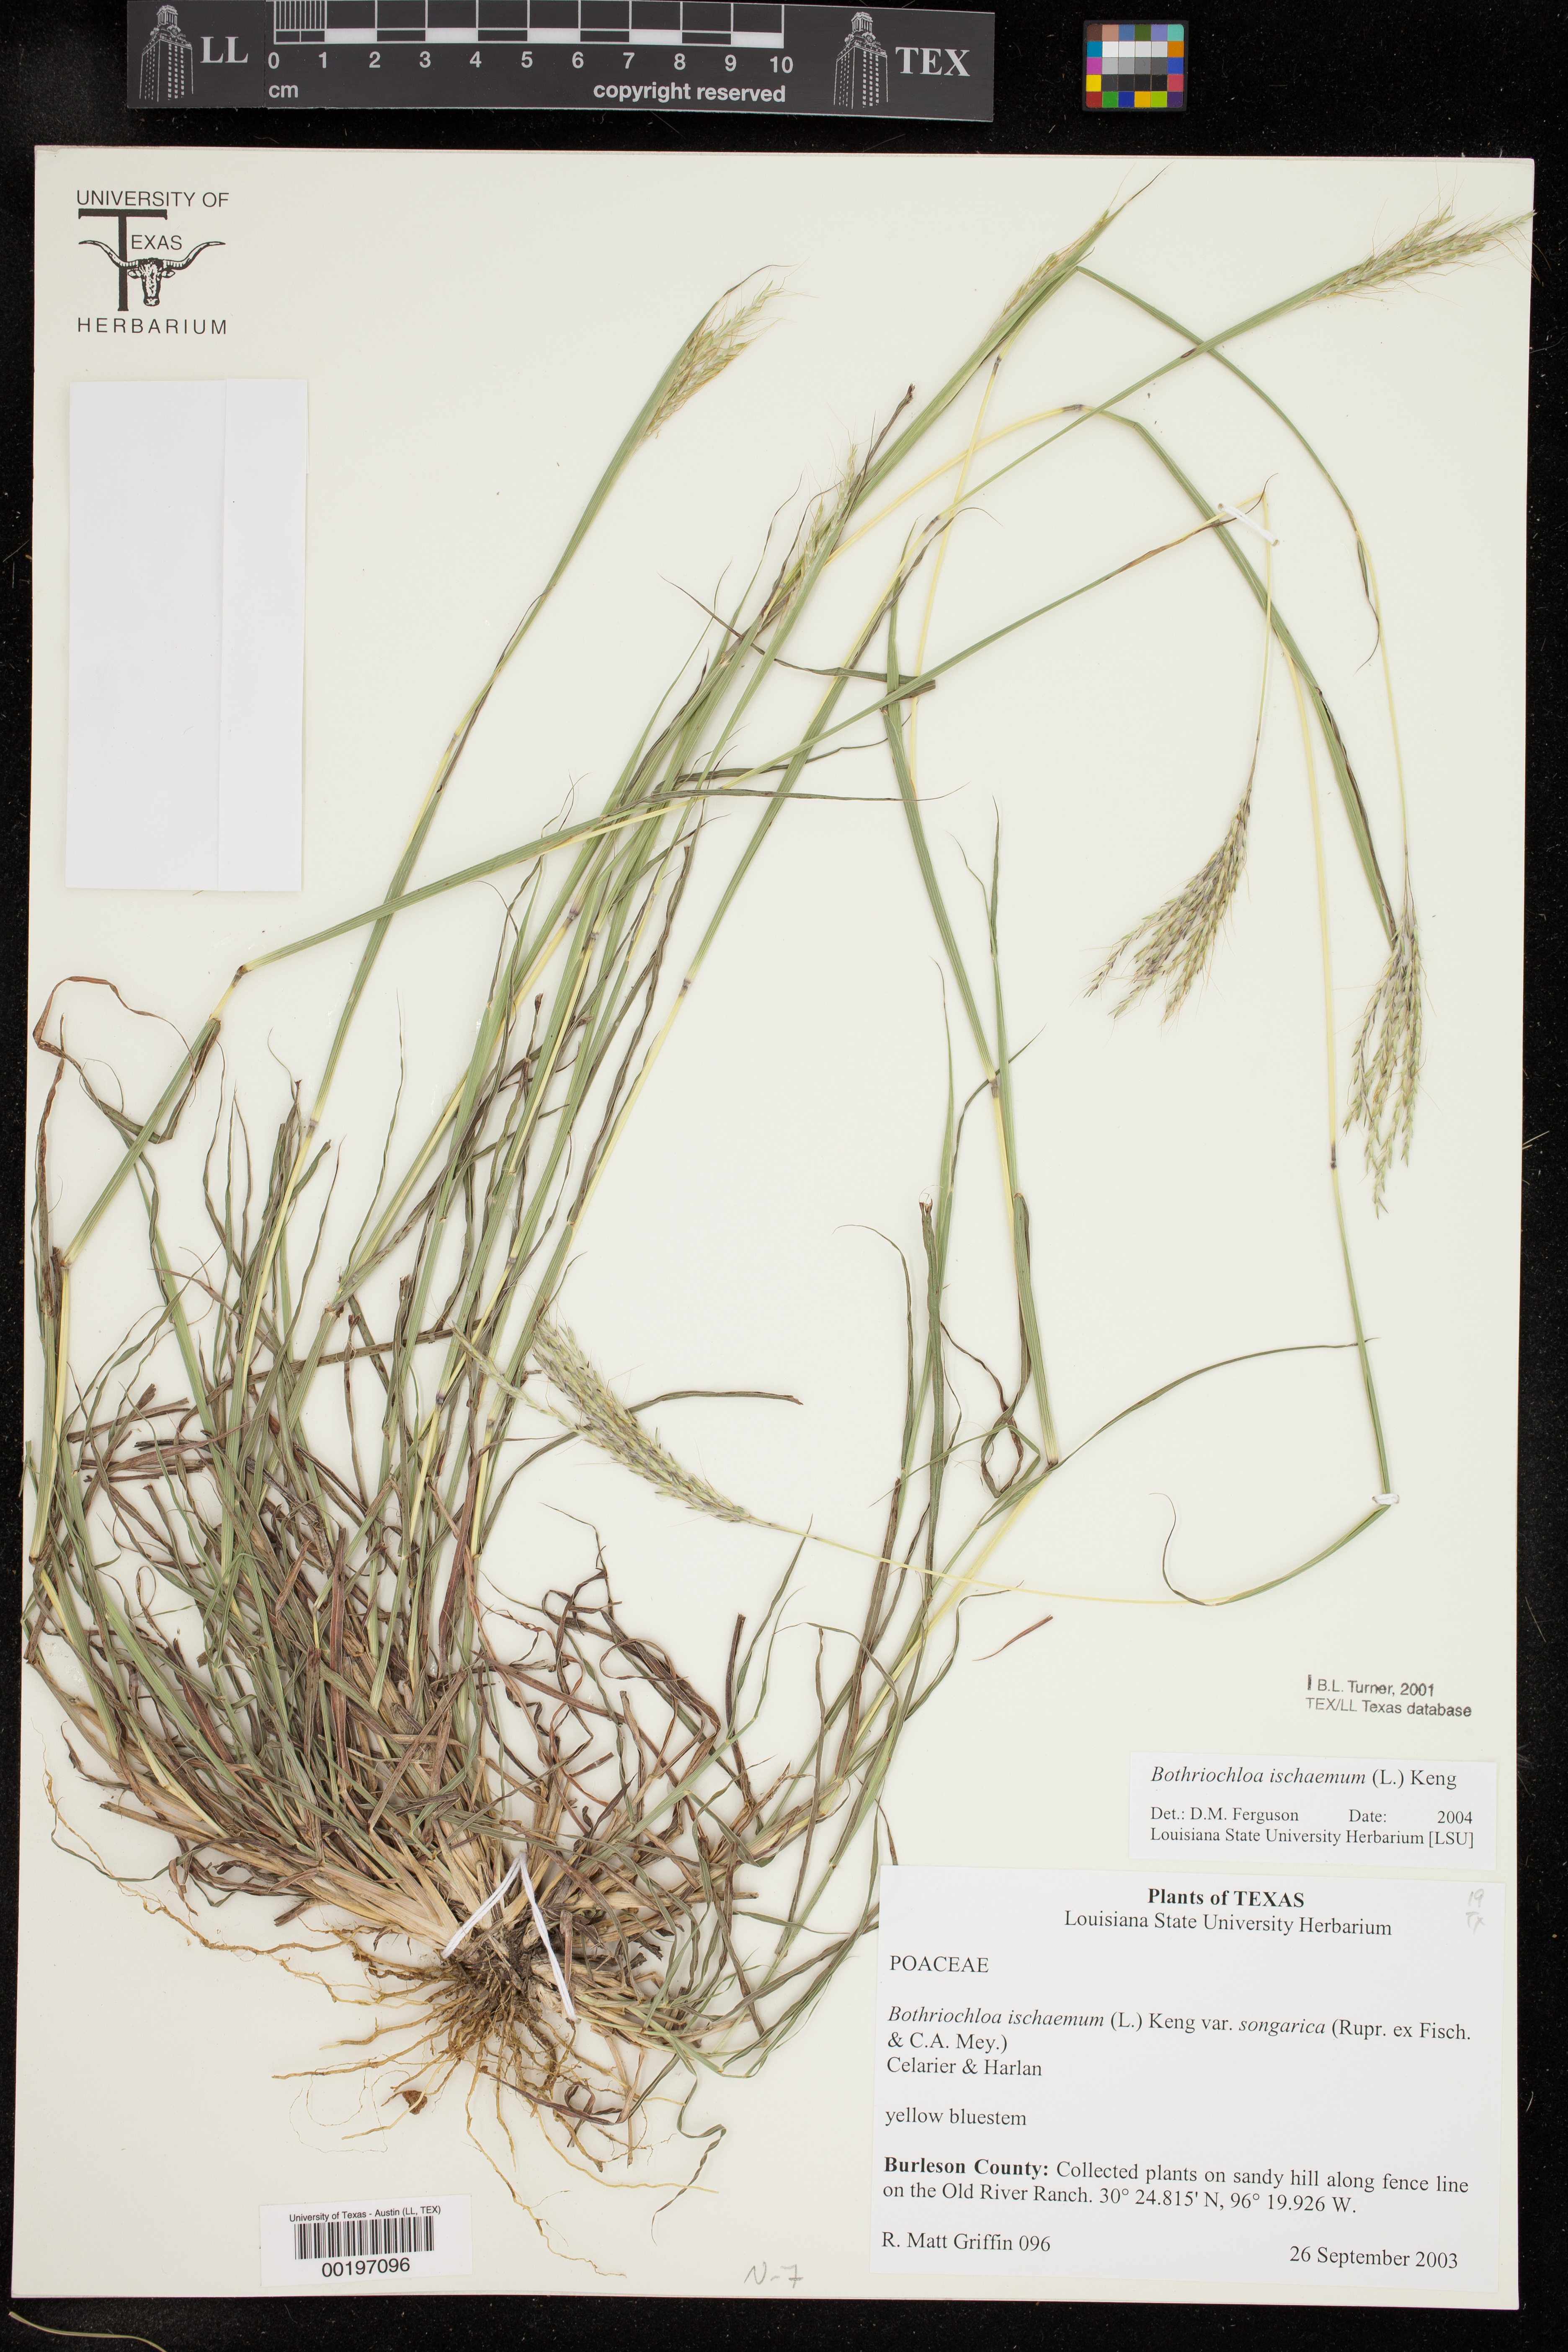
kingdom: Plantae
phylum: Tracheophyta
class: Liliopsida
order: Poales
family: Poaceae
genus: Bothriochloa
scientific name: Bothriochloa ischaemum
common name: Yellow bluestem
